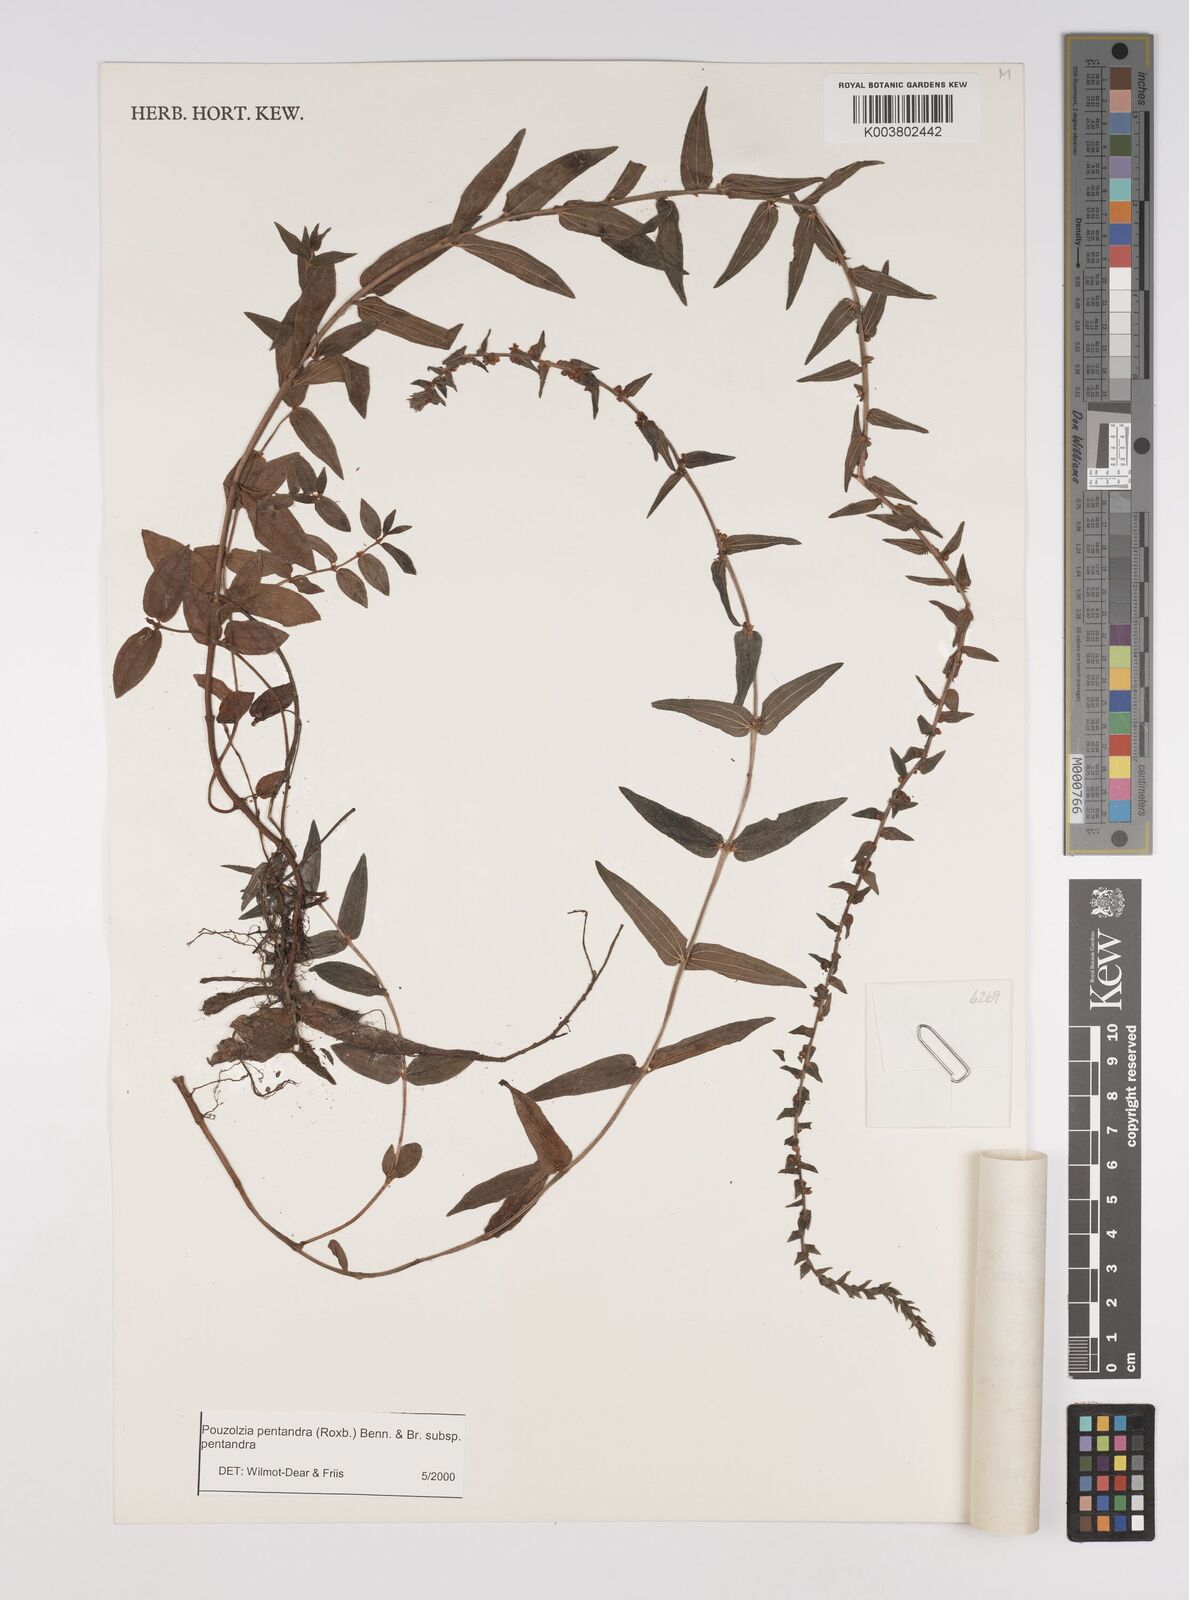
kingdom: Plantae
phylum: Tracheophyta
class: Magnoliopsida
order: Rosales
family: Urticaceae
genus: Gonostegia
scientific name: Gonostegia pentandra
